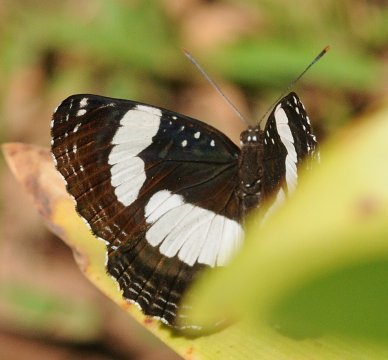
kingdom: Animalia
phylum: Arthropoda
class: Insecta
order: Lepidoptera
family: Nymphalidae
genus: Neptis
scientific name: Neptis serena
